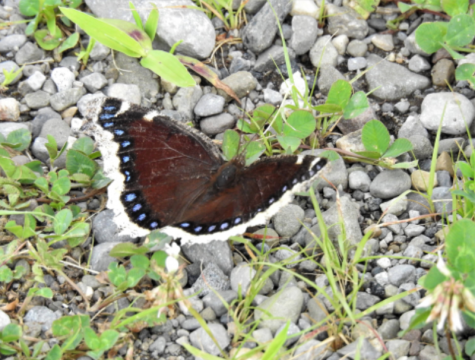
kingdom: Animalia
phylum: Arthropoda
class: Insecta
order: Lepidoptera
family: Nymphalidae
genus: Nymphalis
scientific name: Nymphalis antiopa
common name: Mourning Cloak
